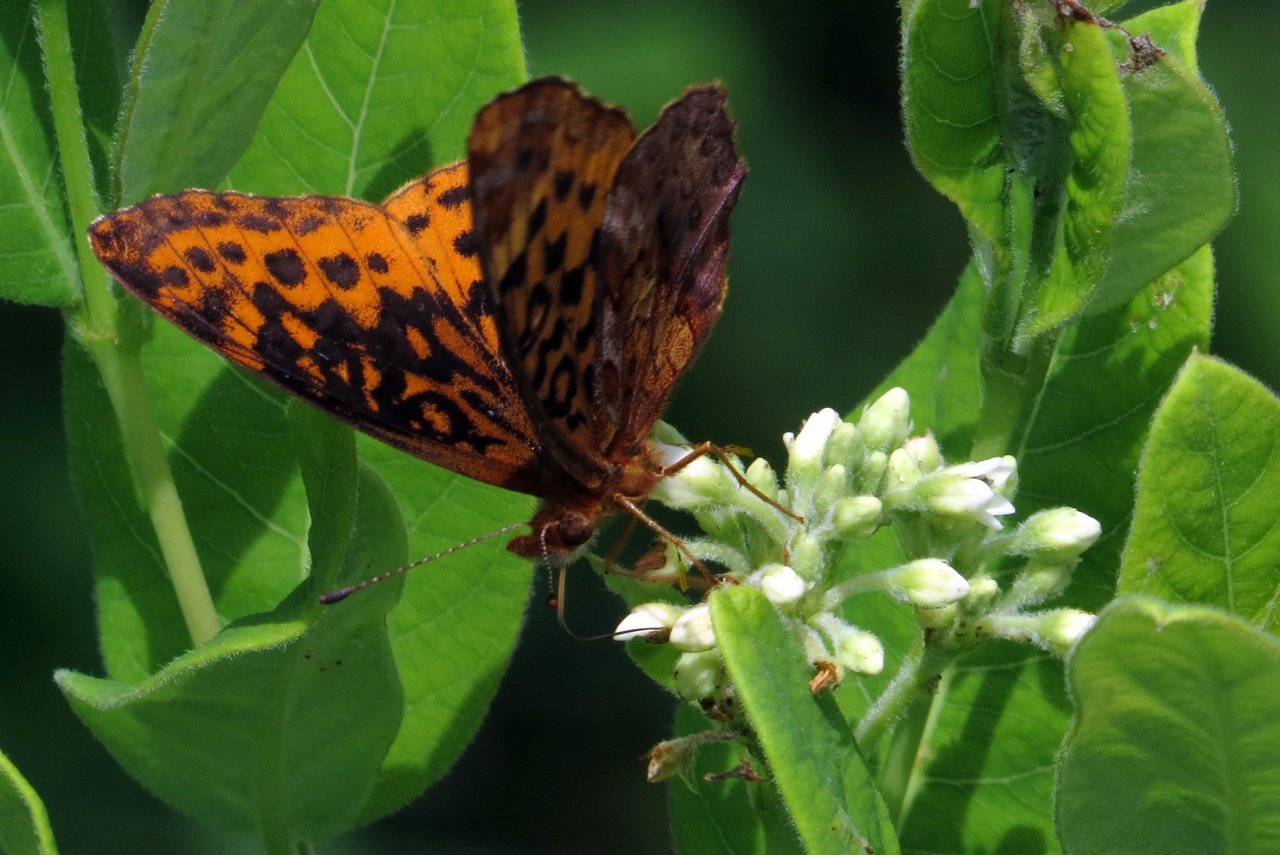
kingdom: Animalia
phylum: Arthropoda
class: Insecta
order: Lepidoptera
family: Nymphalidae
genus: Clossiana
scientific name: Clossiana toddi
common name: Meadow Fritillary
